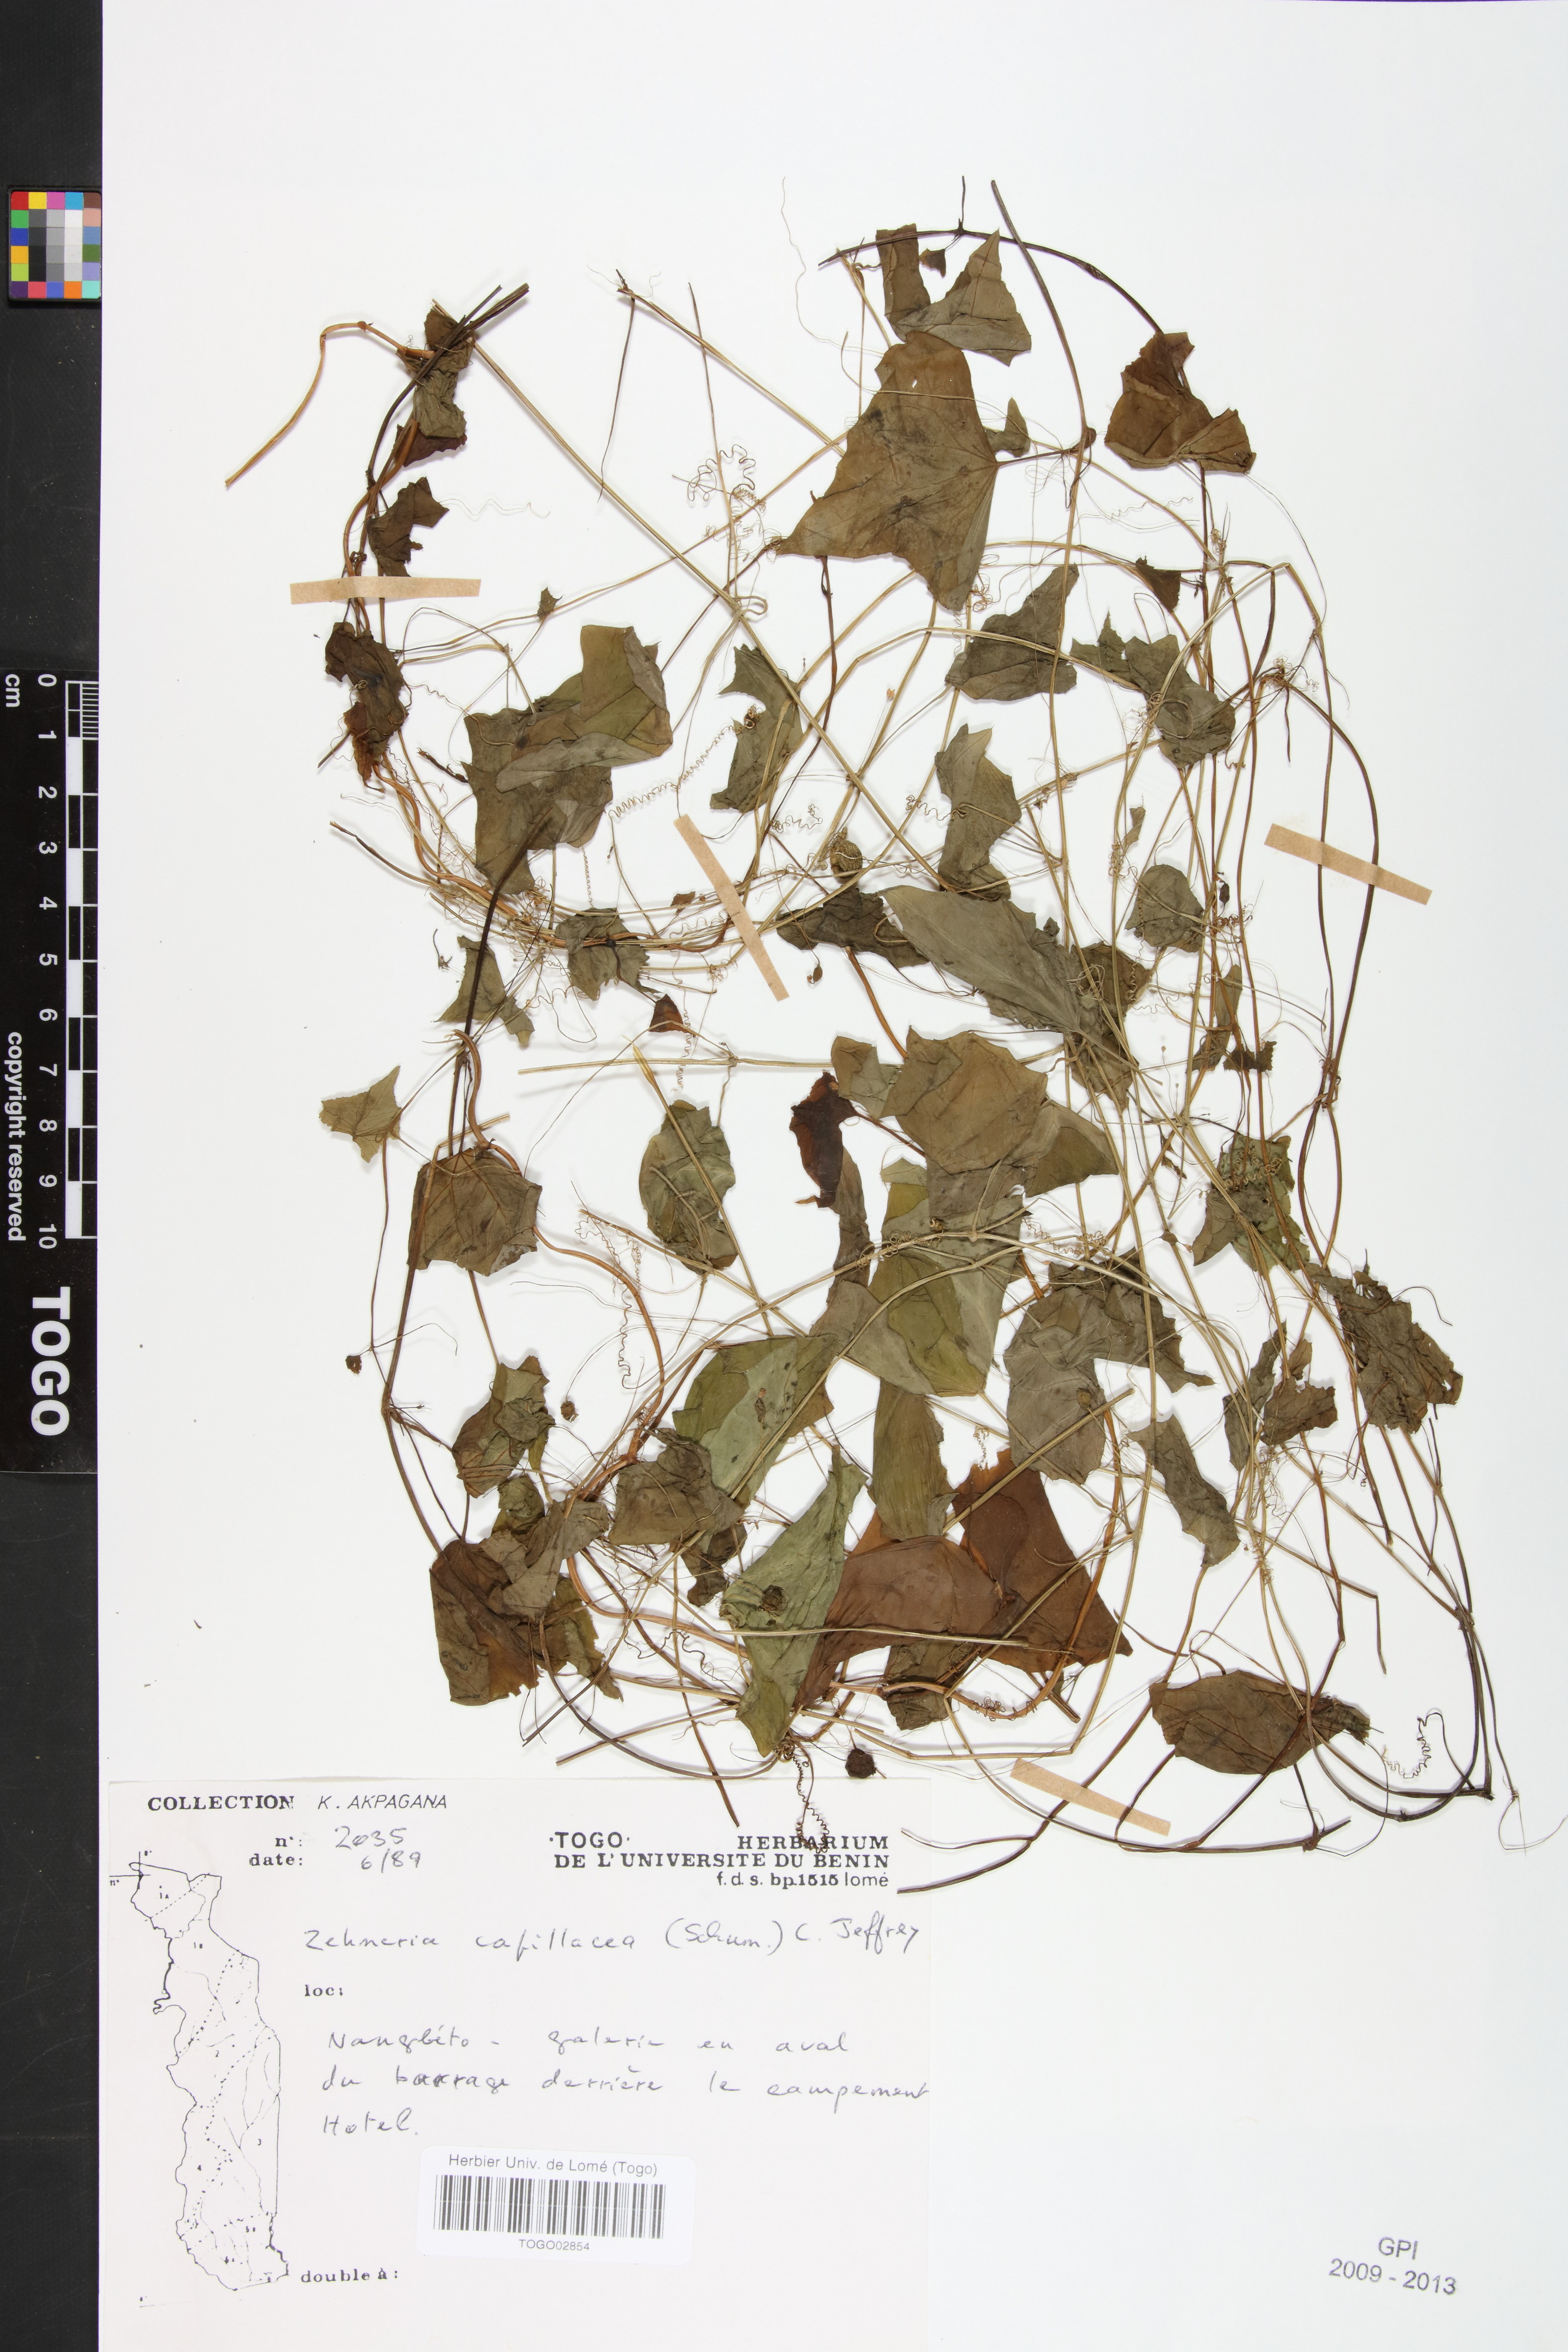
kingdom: Plantae
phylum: Tracheophyta
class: Magnoliopsida
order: Cucurbitales
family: Cucurbitaceae
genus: Zehneria
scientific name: Zehneria capillacea
